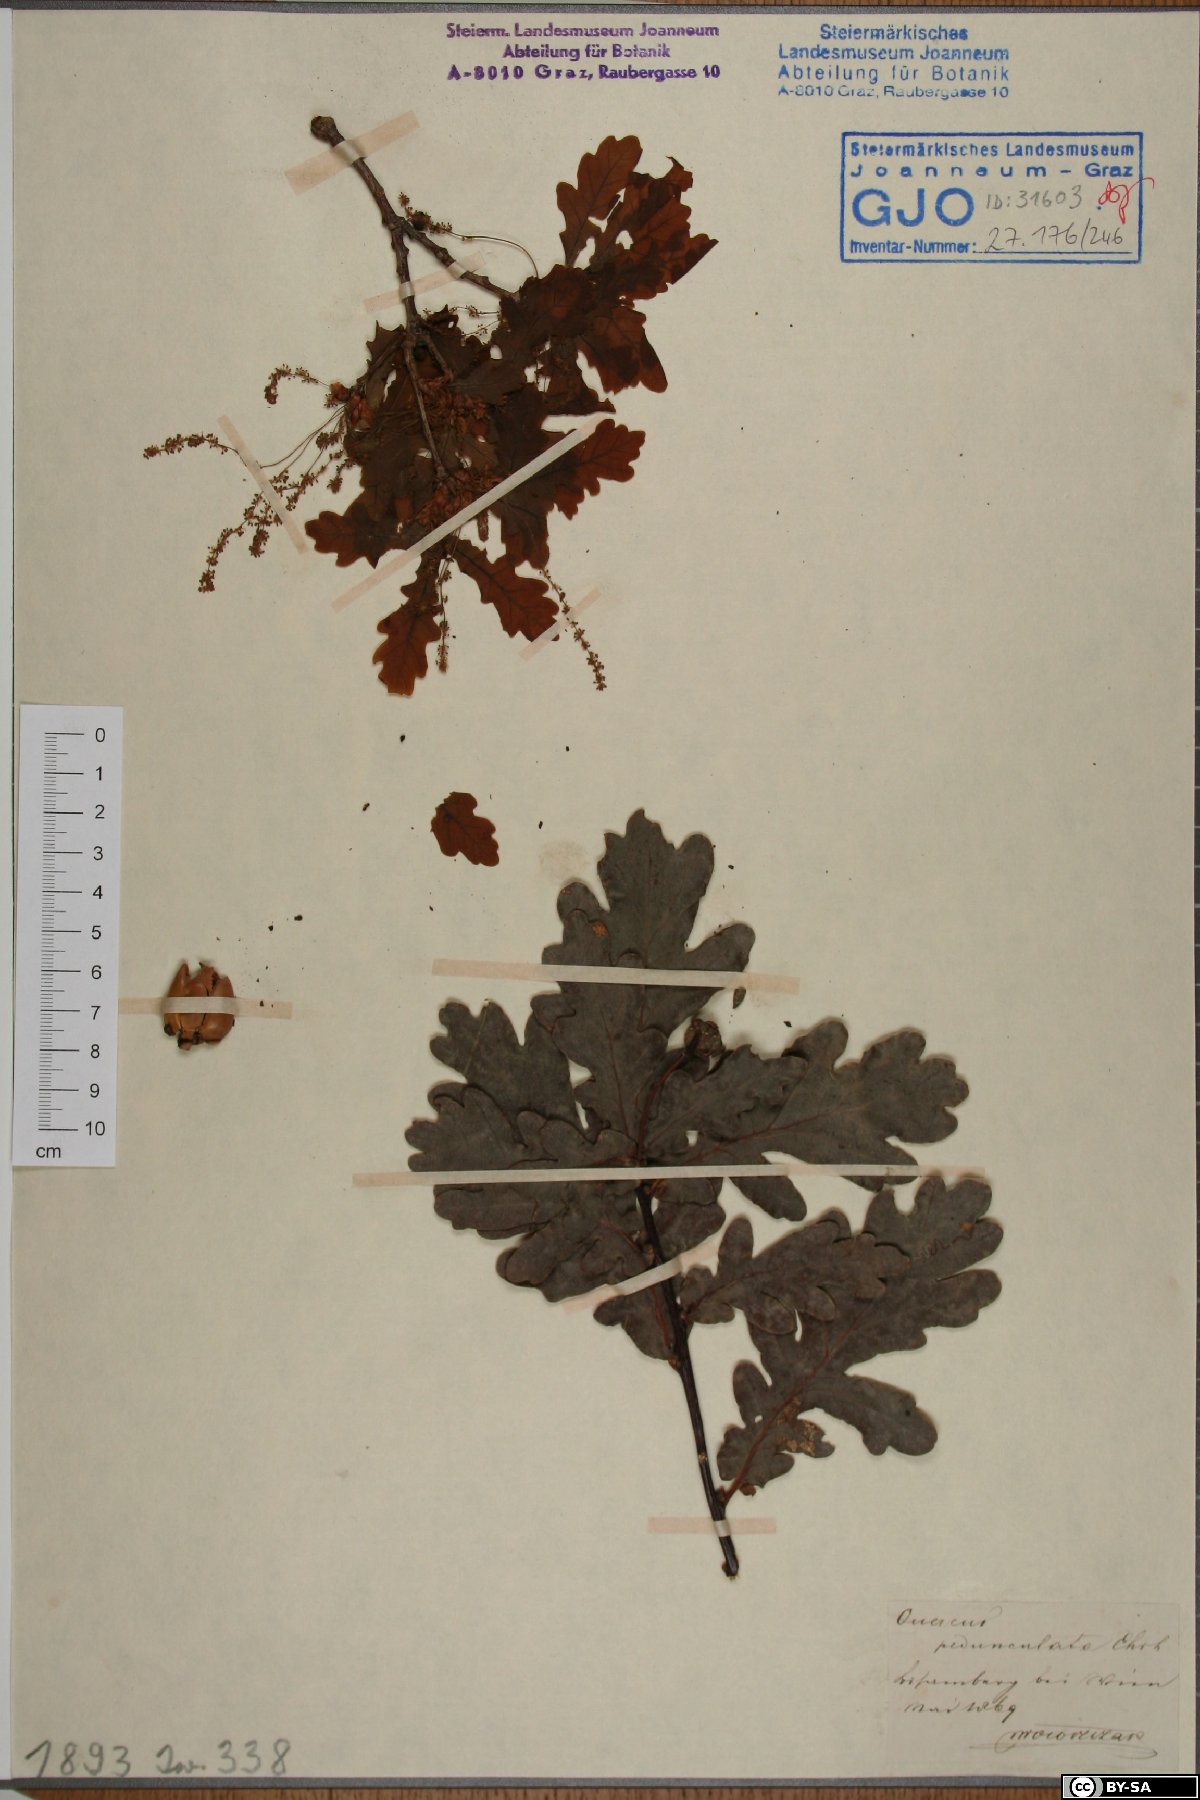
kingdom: Plantae
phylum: Tracheophyta
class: Magnoliopsida
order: Fagales
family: Fagaceae
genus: Quercus
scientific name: Quercus robur
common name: Pedunculate oak
